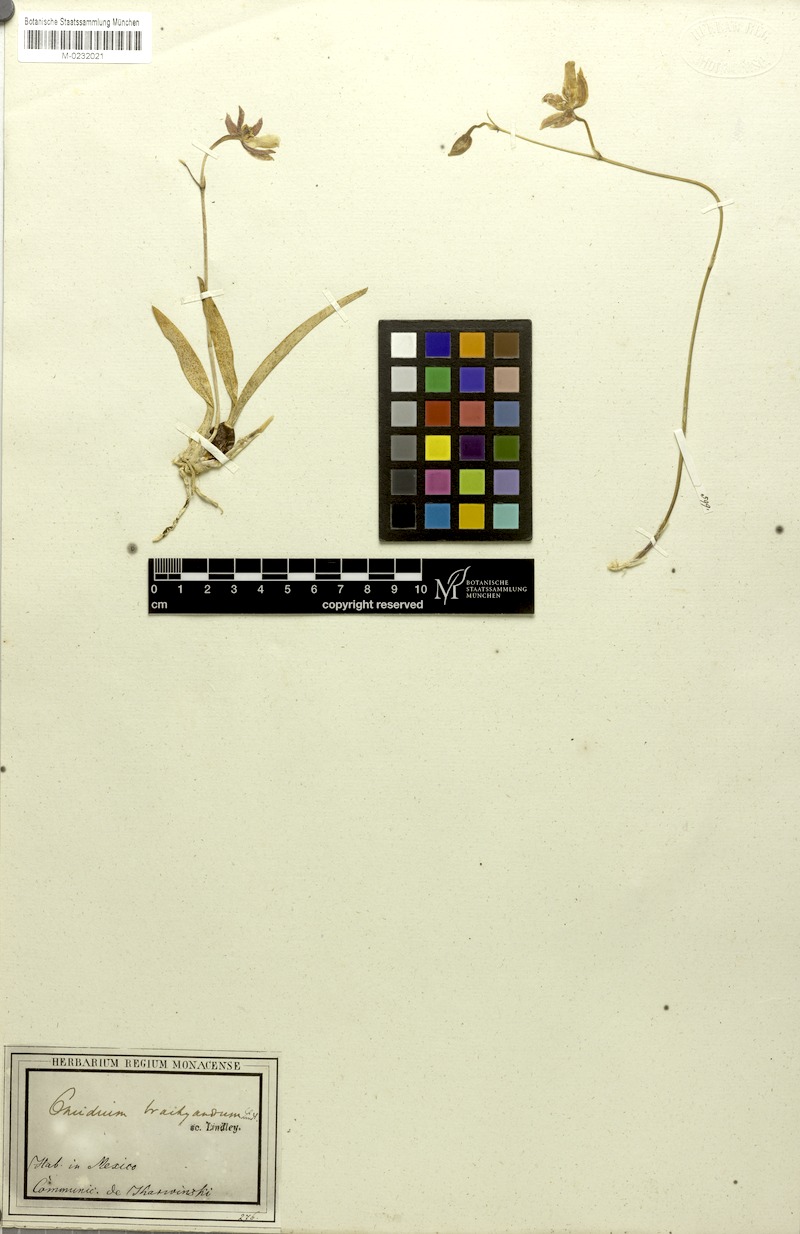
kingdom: Plantae
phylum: Tracheophyta
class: Liliopsida
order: Asparagales
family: Orchidaceae
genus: Oncidium
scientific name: Oncidium brachyandrum
